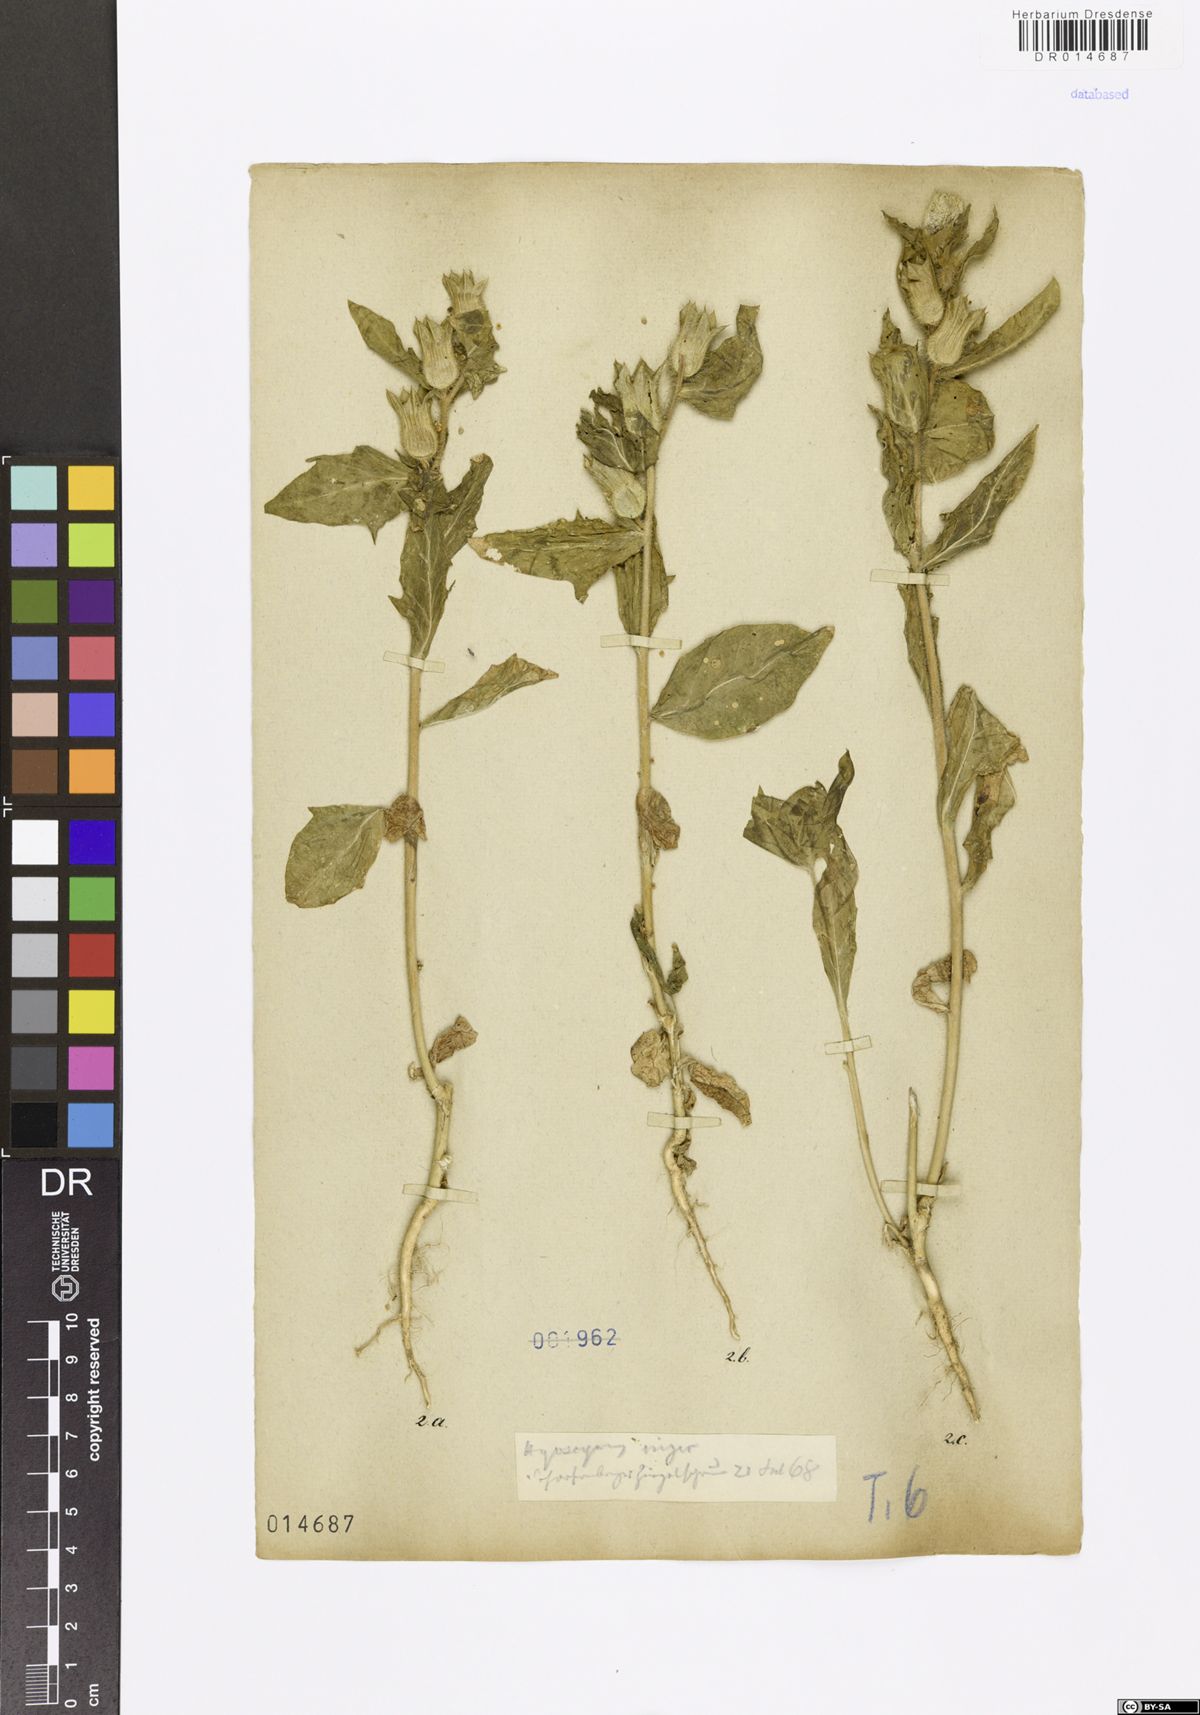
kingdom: Plantae
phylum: Tracheophyta
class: Magnoliopsida
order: Solanales
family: Solanaceae
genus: Hyoscyamus
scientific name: Hyoscyamus niger
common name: Henbane
